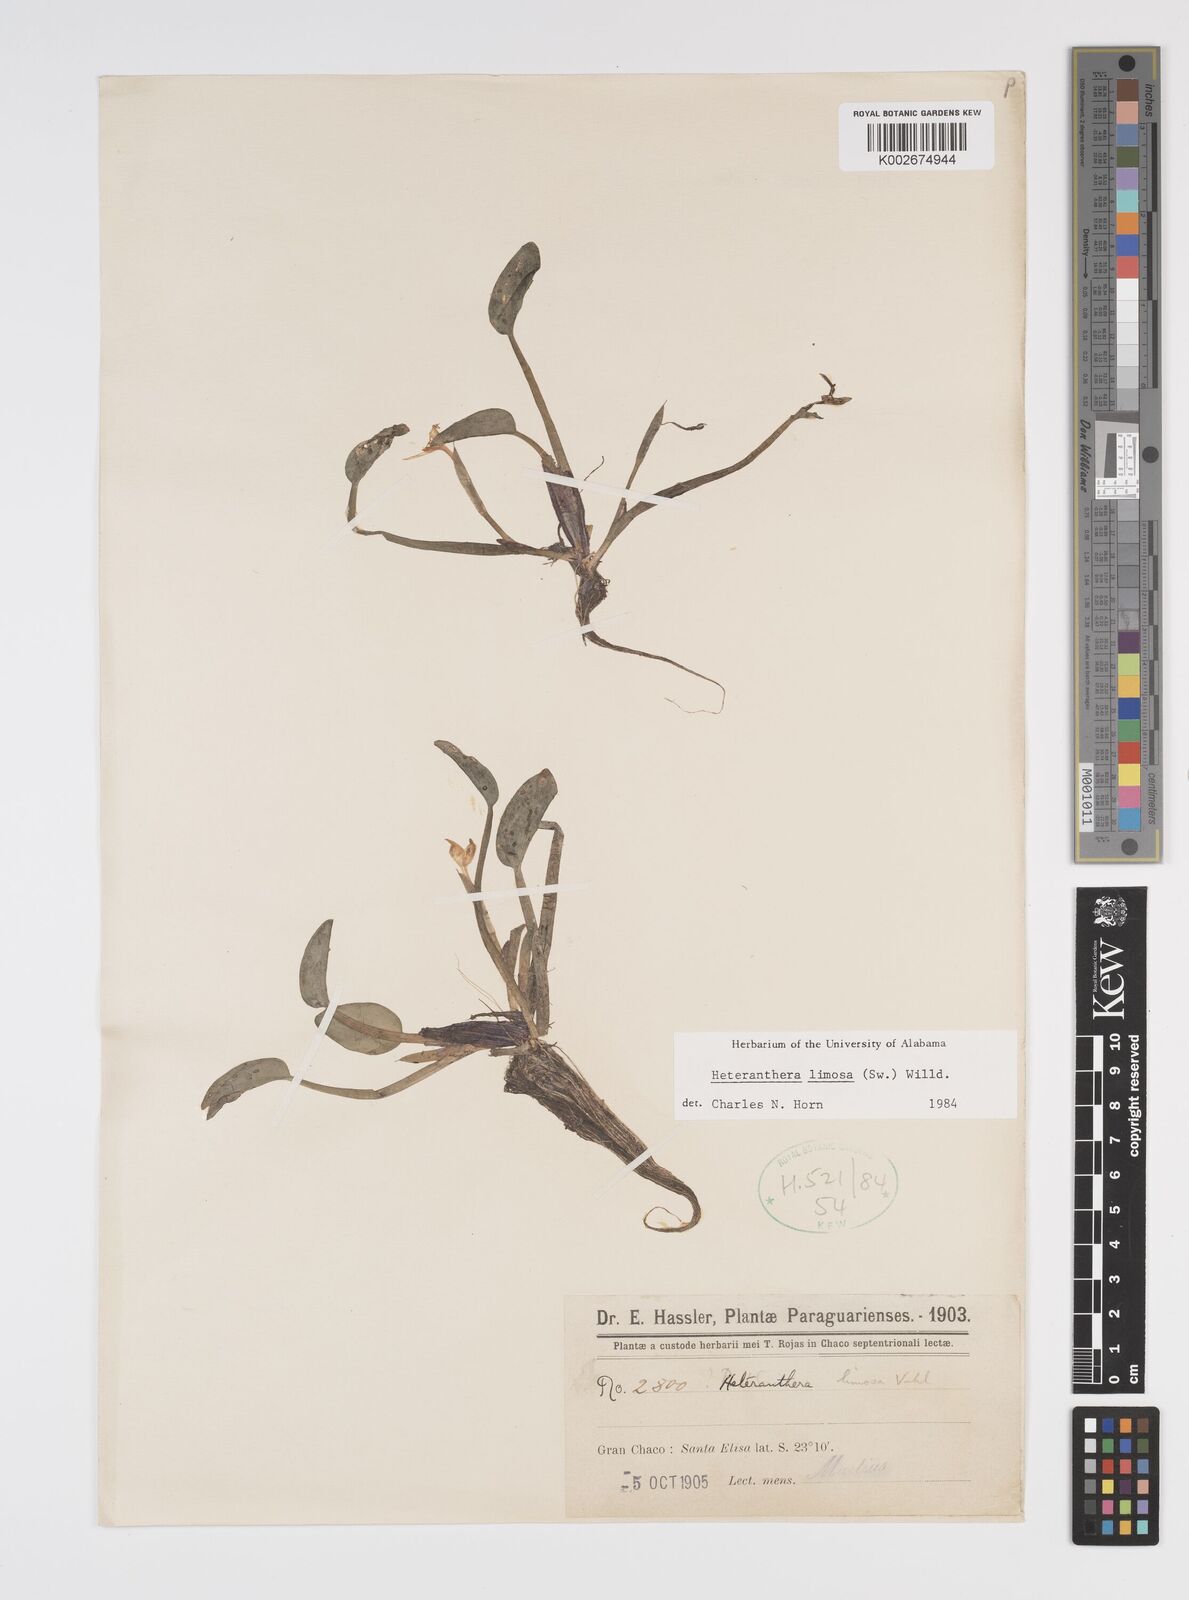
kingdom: Plantae
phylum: Tracheophyta
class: Liliopsida
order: Commelinales
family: Pontederiaceae
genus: Heteranthera
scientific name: Heteranthera limosa
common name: Blue mud-plantain
